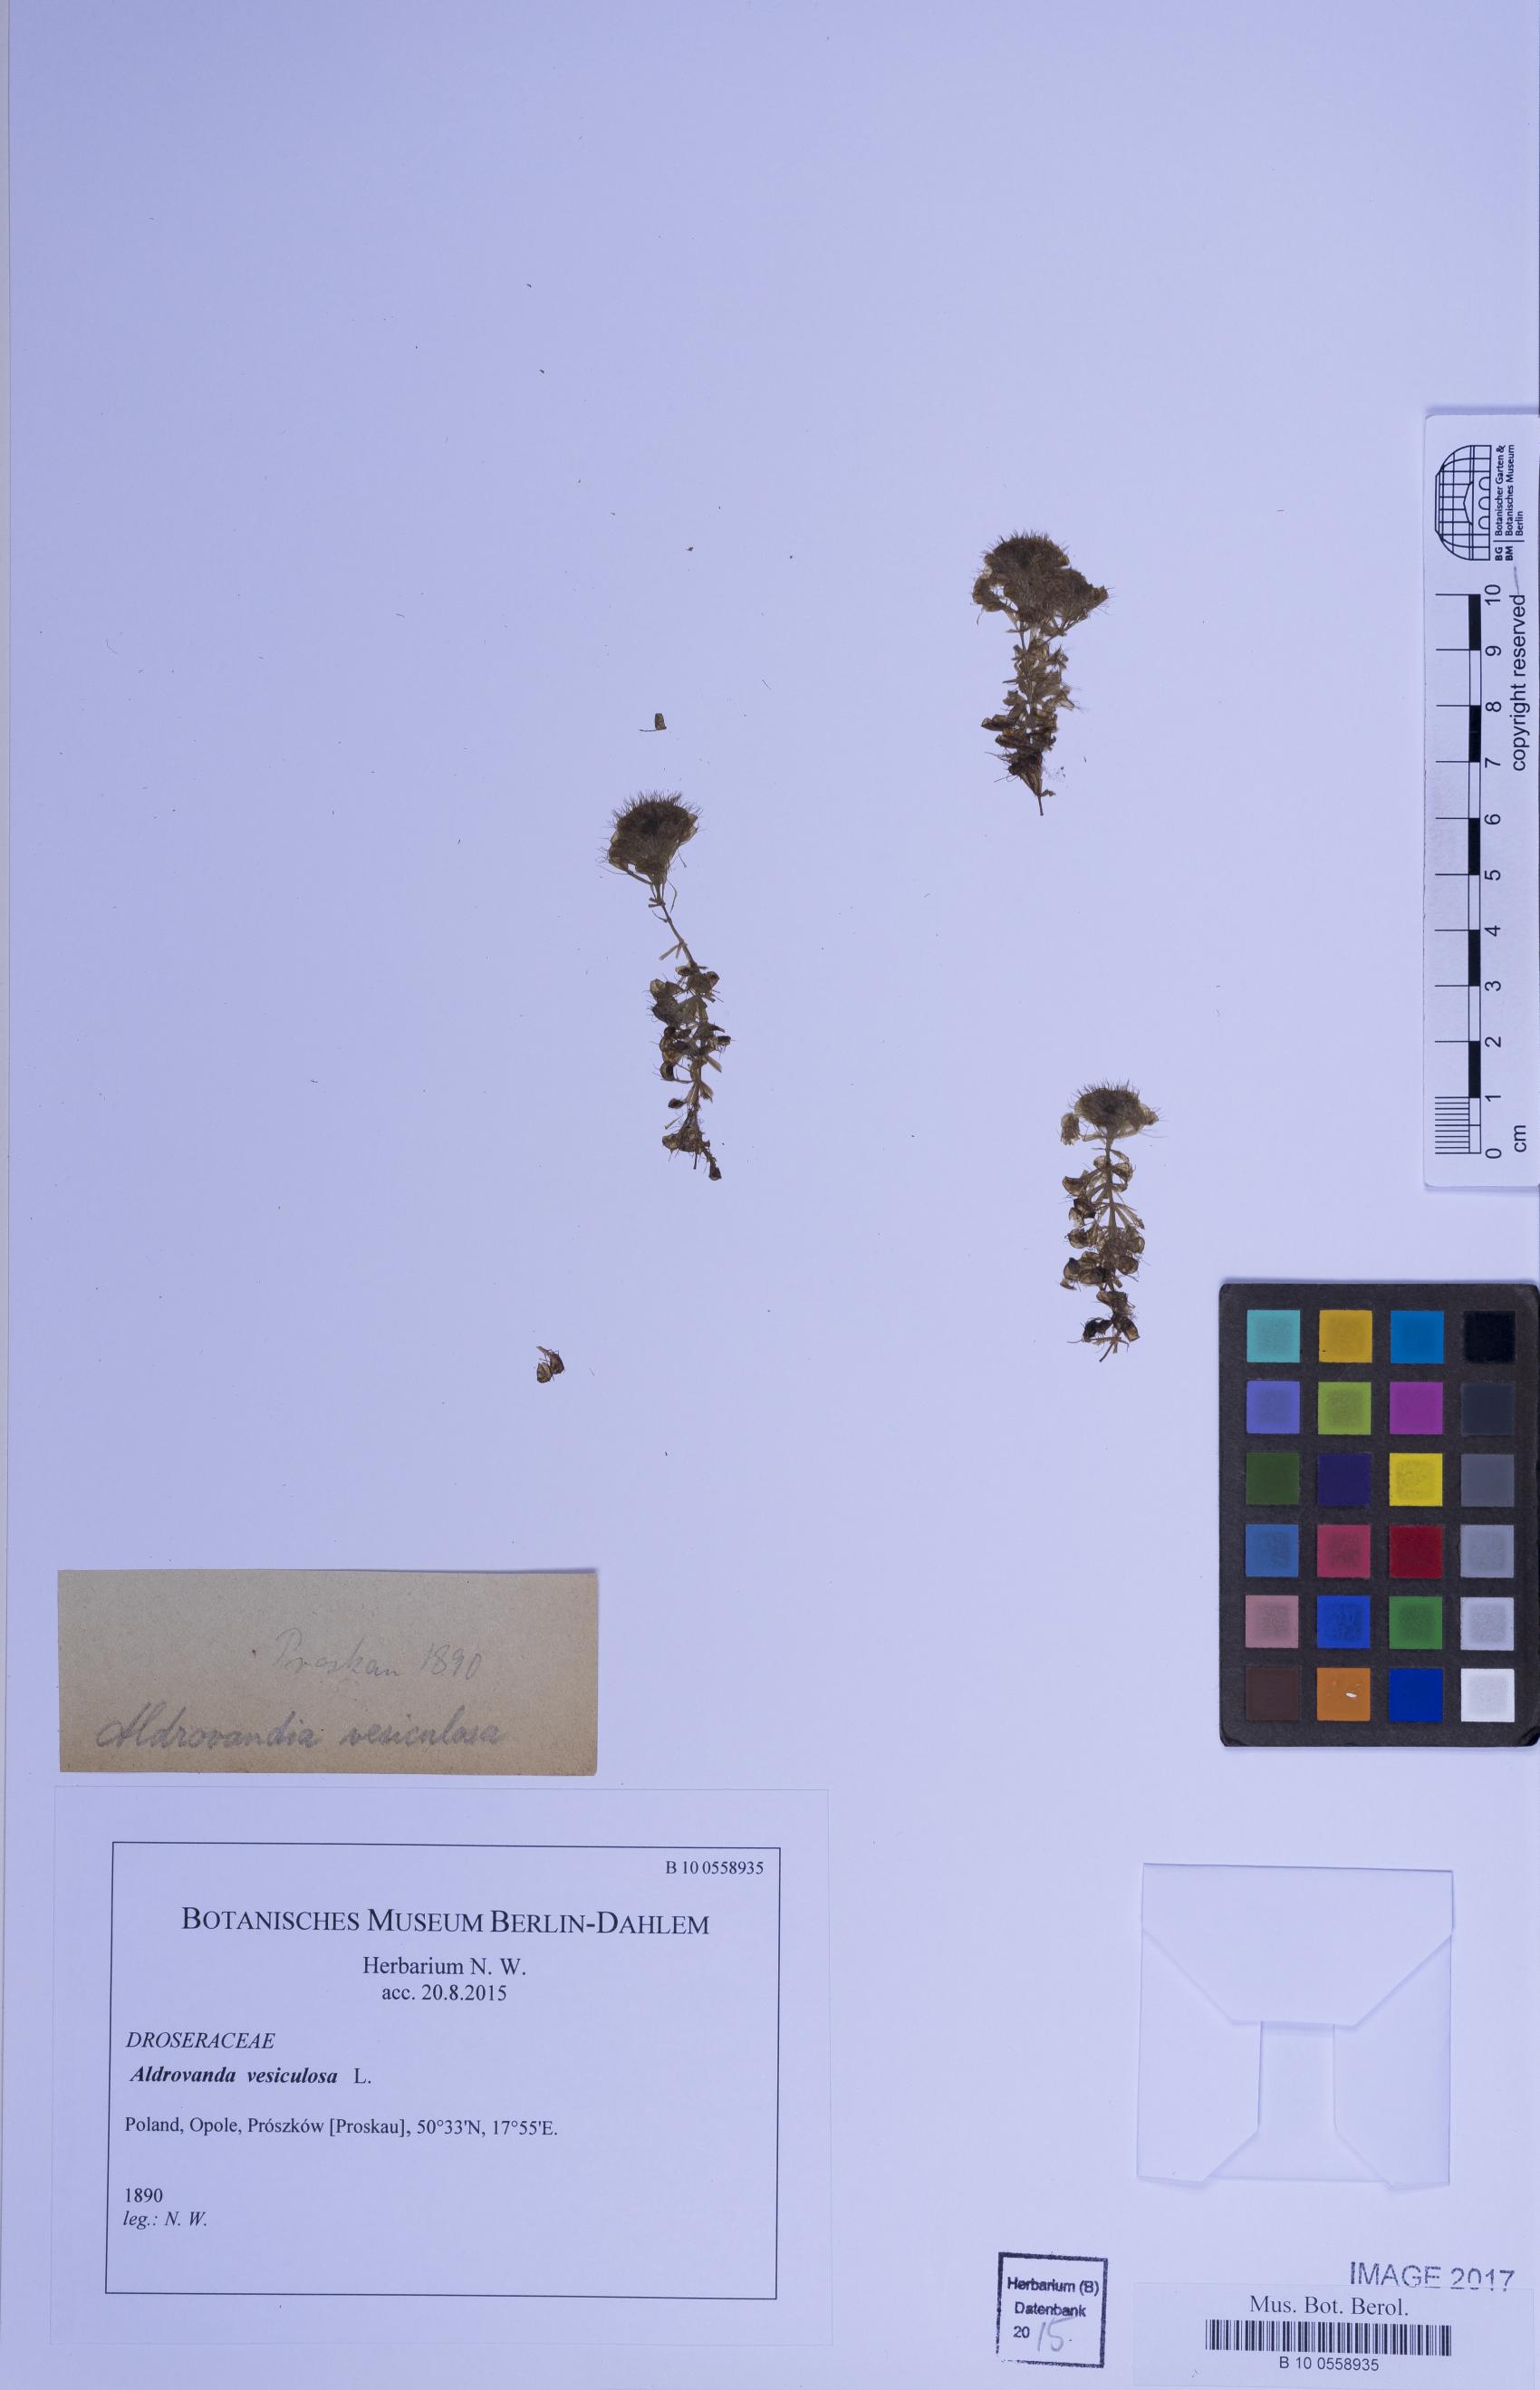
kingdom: Plantae
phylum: Tracheophyta
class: Magnoliopsida
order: Caryophyllales
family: Droseraceae
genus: Aldrovanda
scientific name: Aldrovanda vesiculosa
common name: Waterwheel plant
